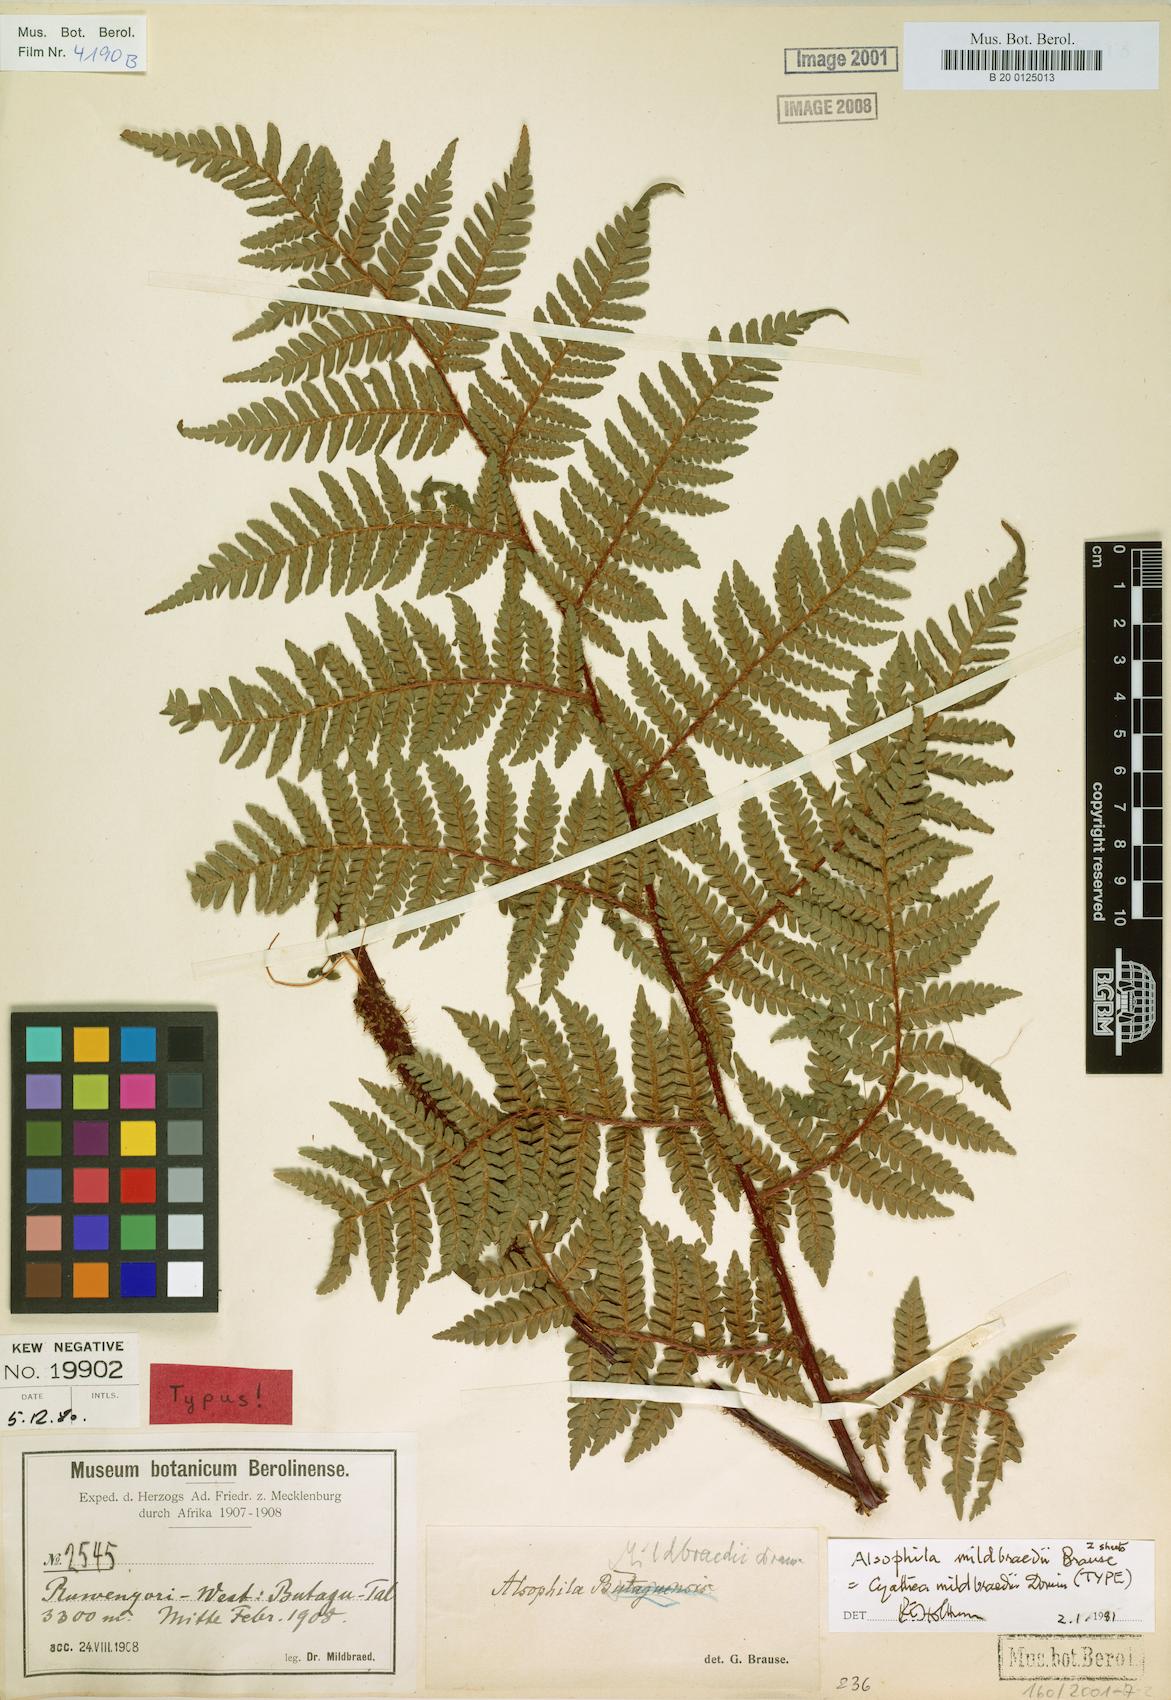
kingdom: Plantae
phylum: Tracheophyta
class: Polypodiopsida
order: Cyatheales
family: Cyatheaceae
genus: Gymnosphaera
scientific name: Gymnosphaera mildbraedii
